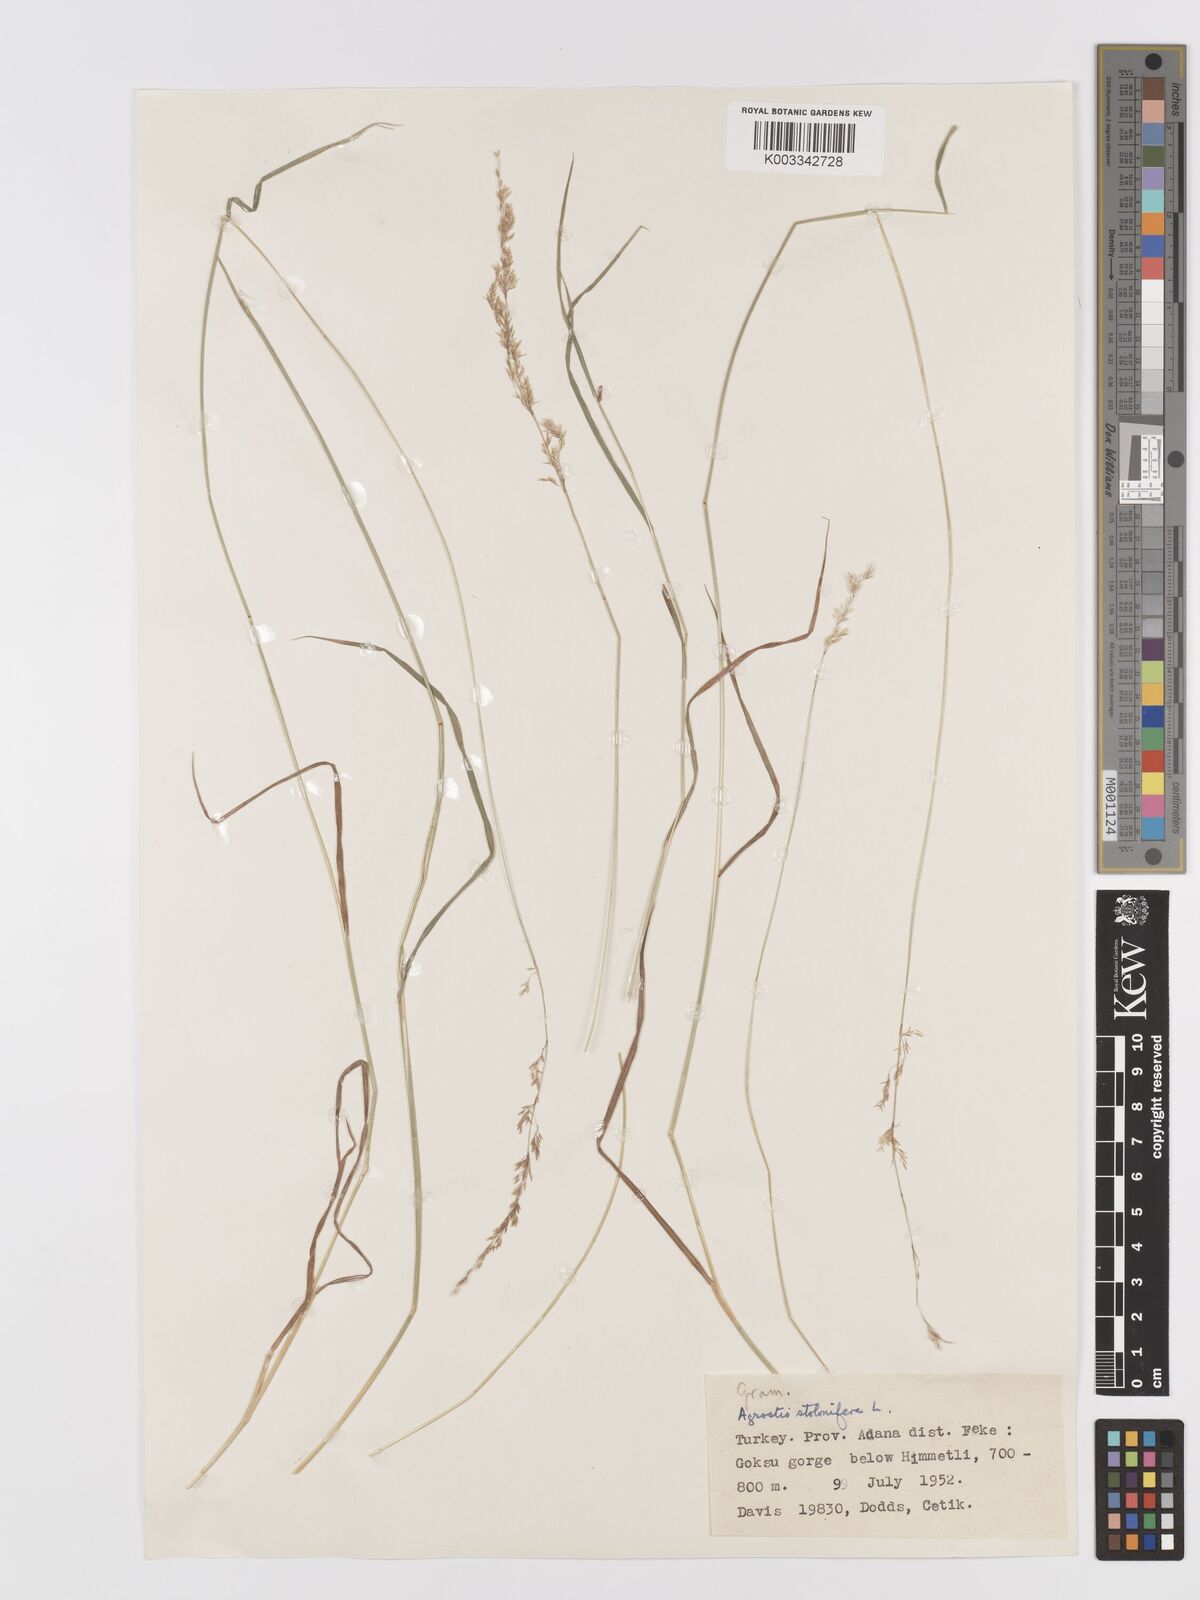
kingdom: Plantae
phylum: Tracheophyta
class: Liliopsida
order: Poales
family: Poaceae
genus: Agrostis
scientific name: Agrostis stolonifera
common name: Creeping bentgrass
